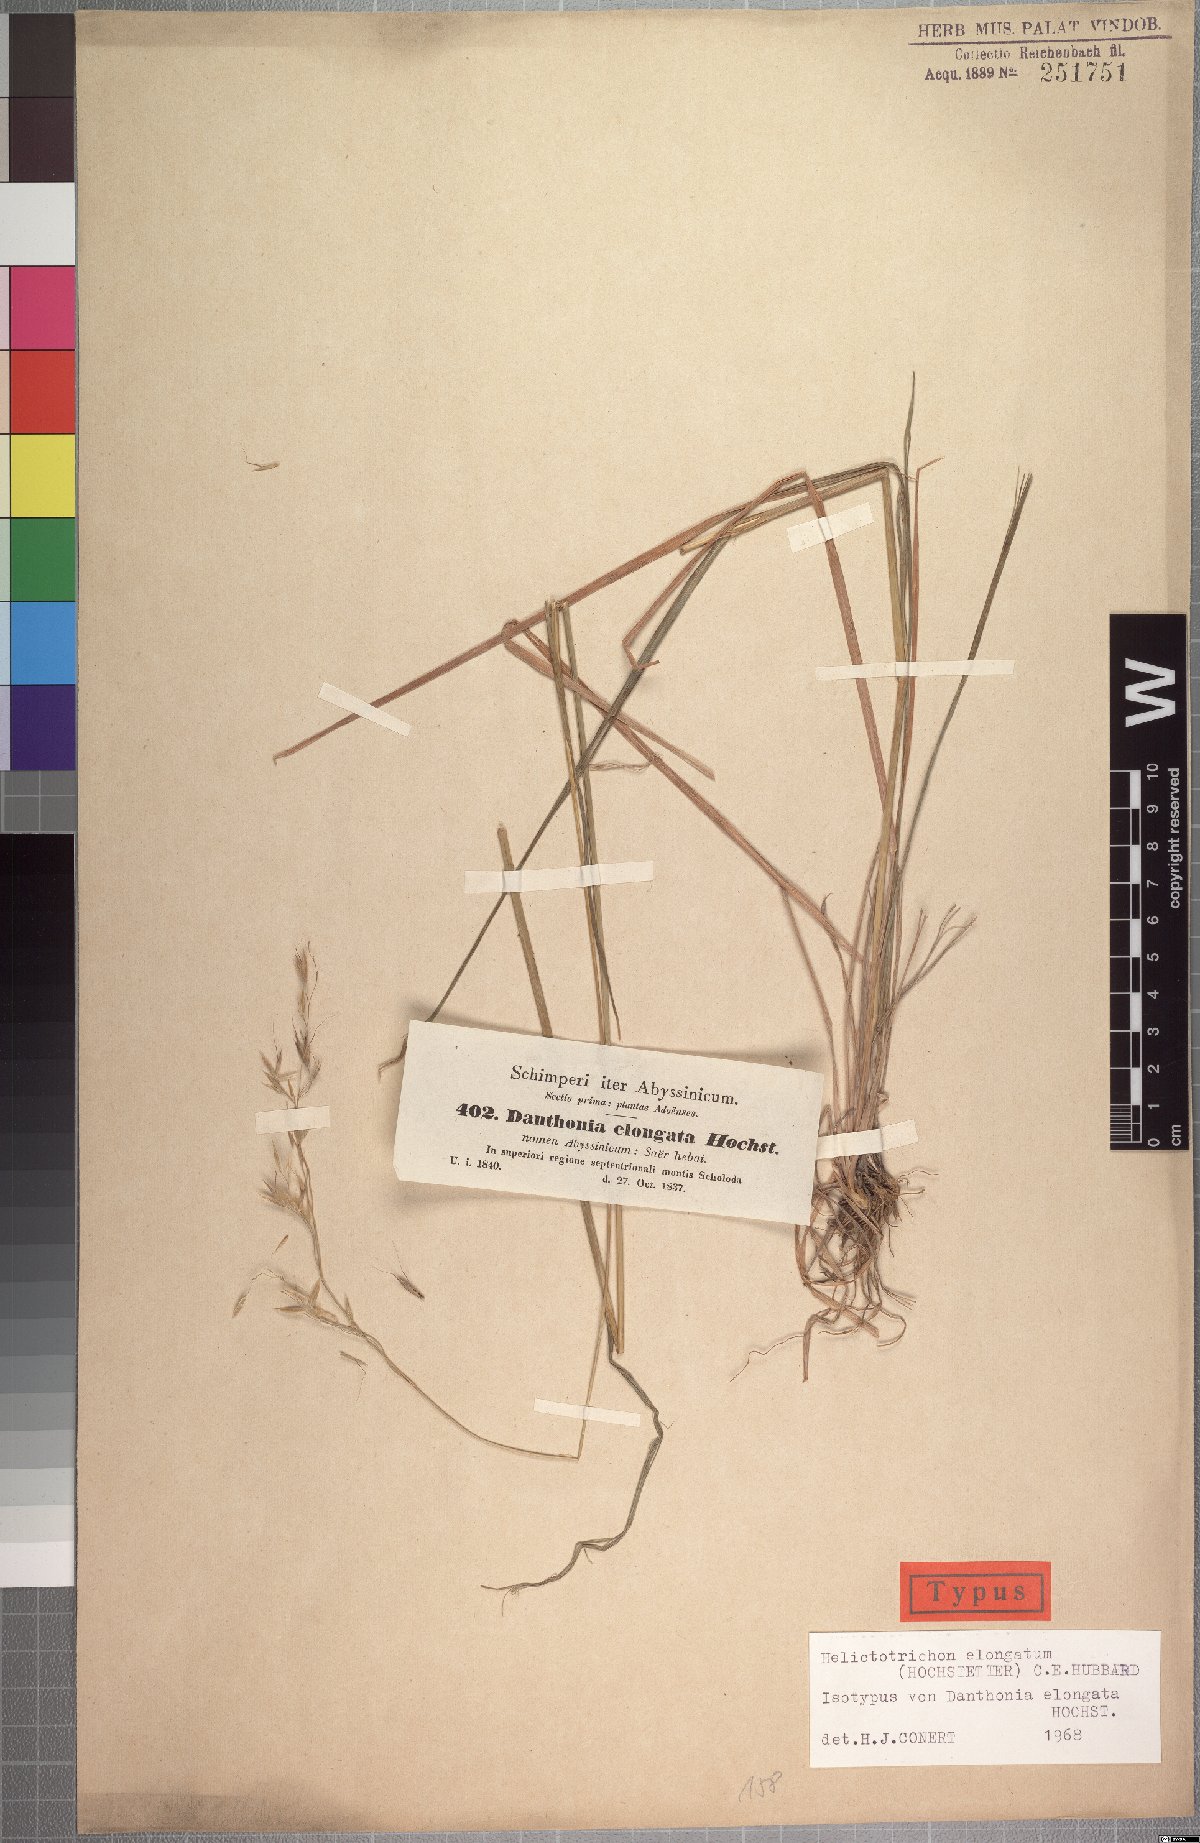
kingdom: Plantae
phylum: Tracheophyta
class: Liliopsida
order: Poales
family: Poaceae
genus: Trisetopsis
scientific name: Trisetopsis elongata
